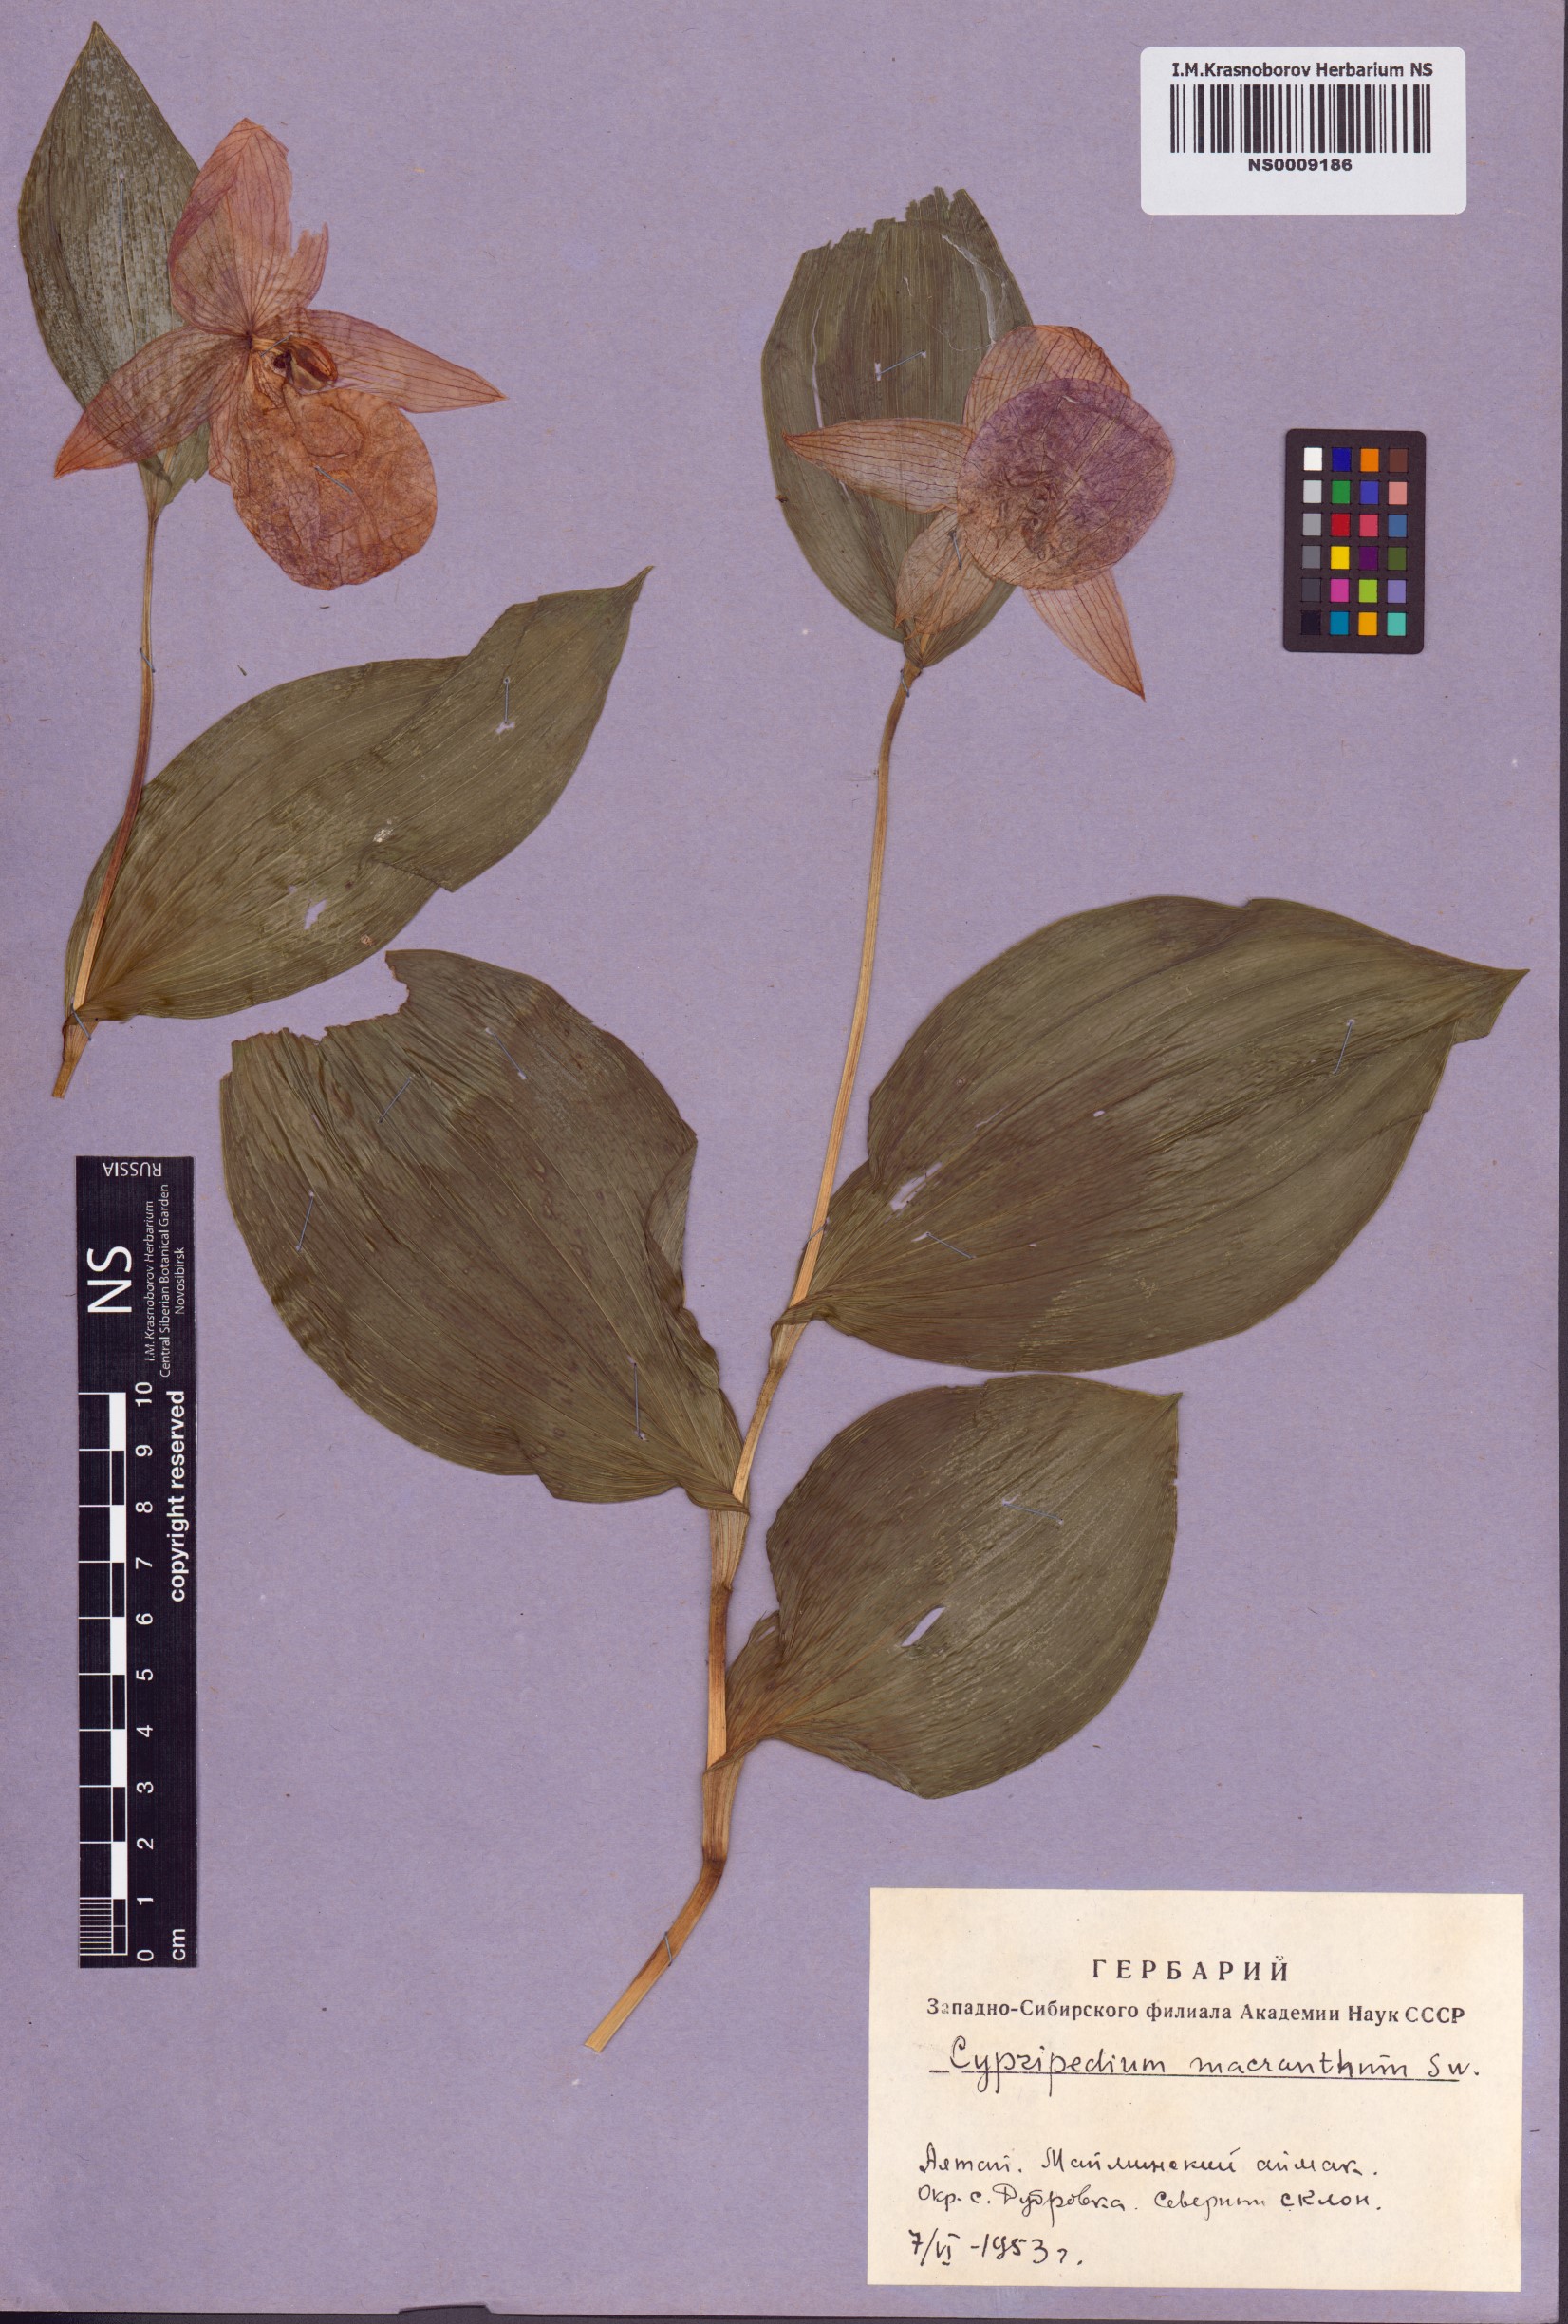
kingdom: Plantae
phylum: Tracheophyta
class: Liliopsida
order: Asparagales
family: Orchidaceae
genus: Cypripedium
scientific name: Cypripedium macranthos
